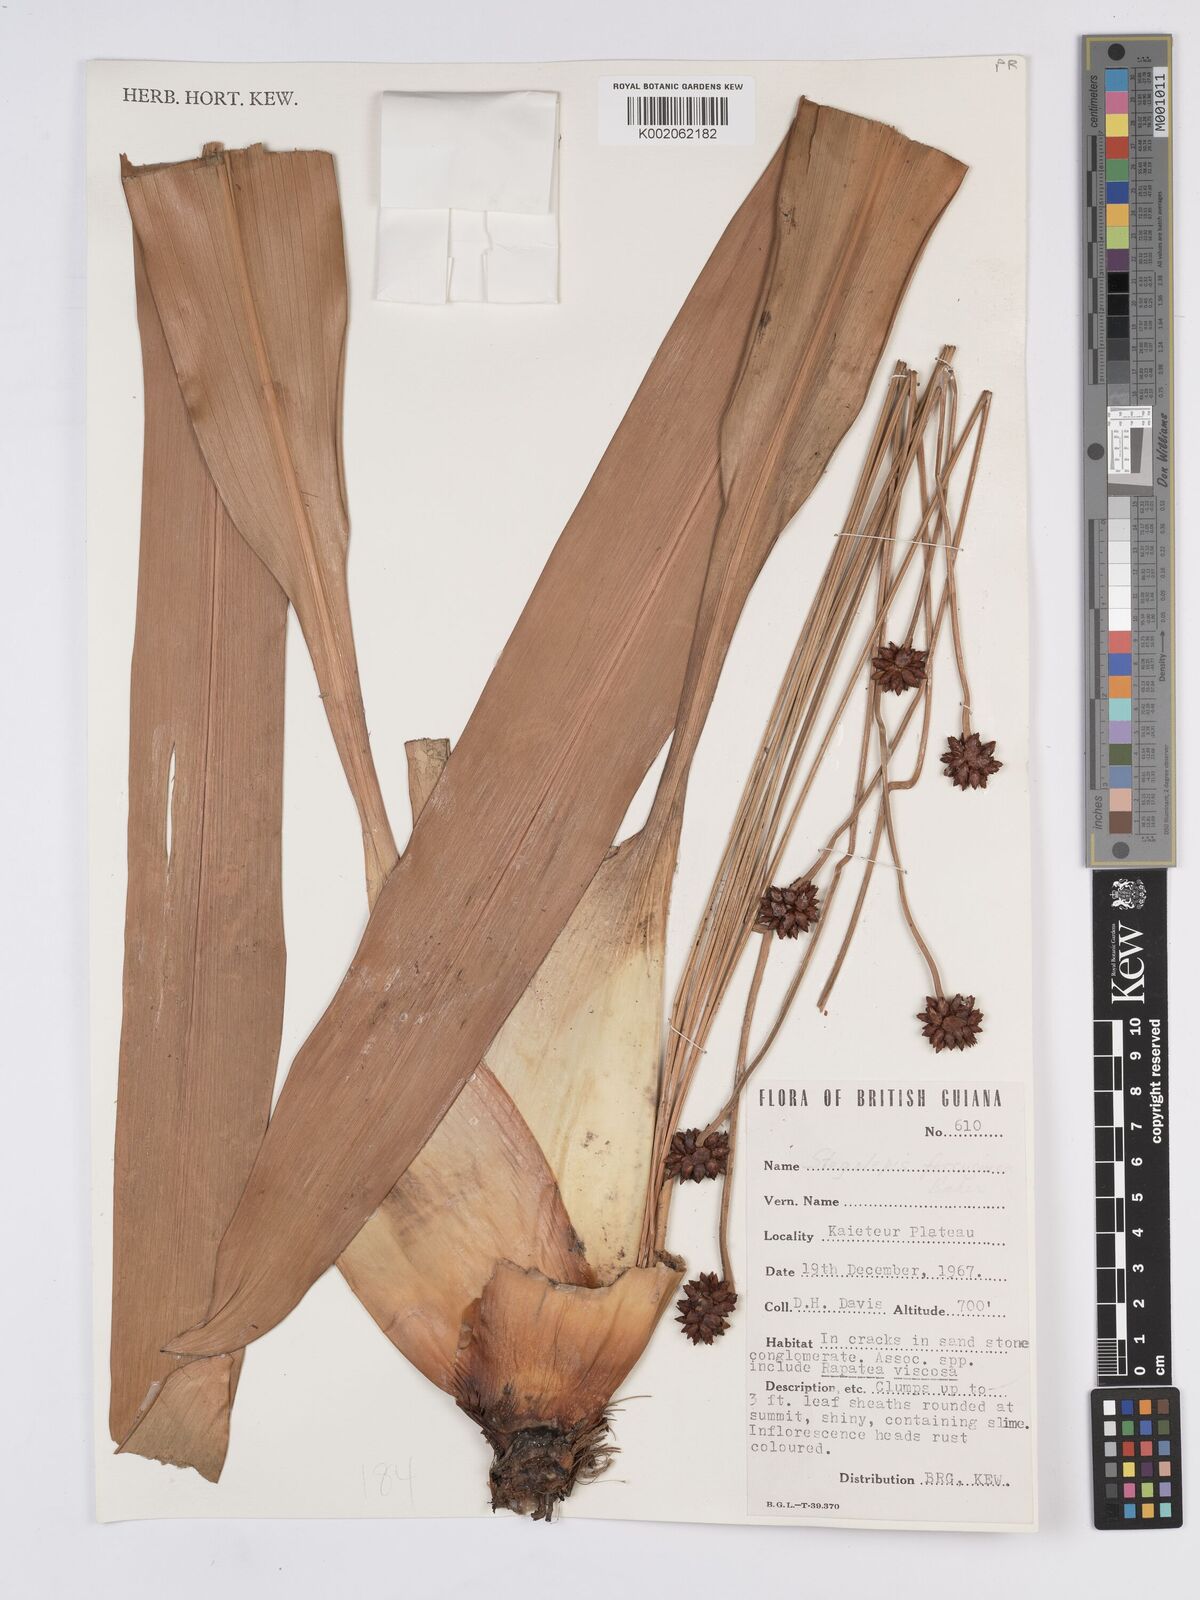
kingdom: Plantae
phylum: Tracheophyta
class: Liliopsida
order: Poales
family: Rapateaceae
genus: Stegolepis
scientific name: Stegolepis ferruginea
